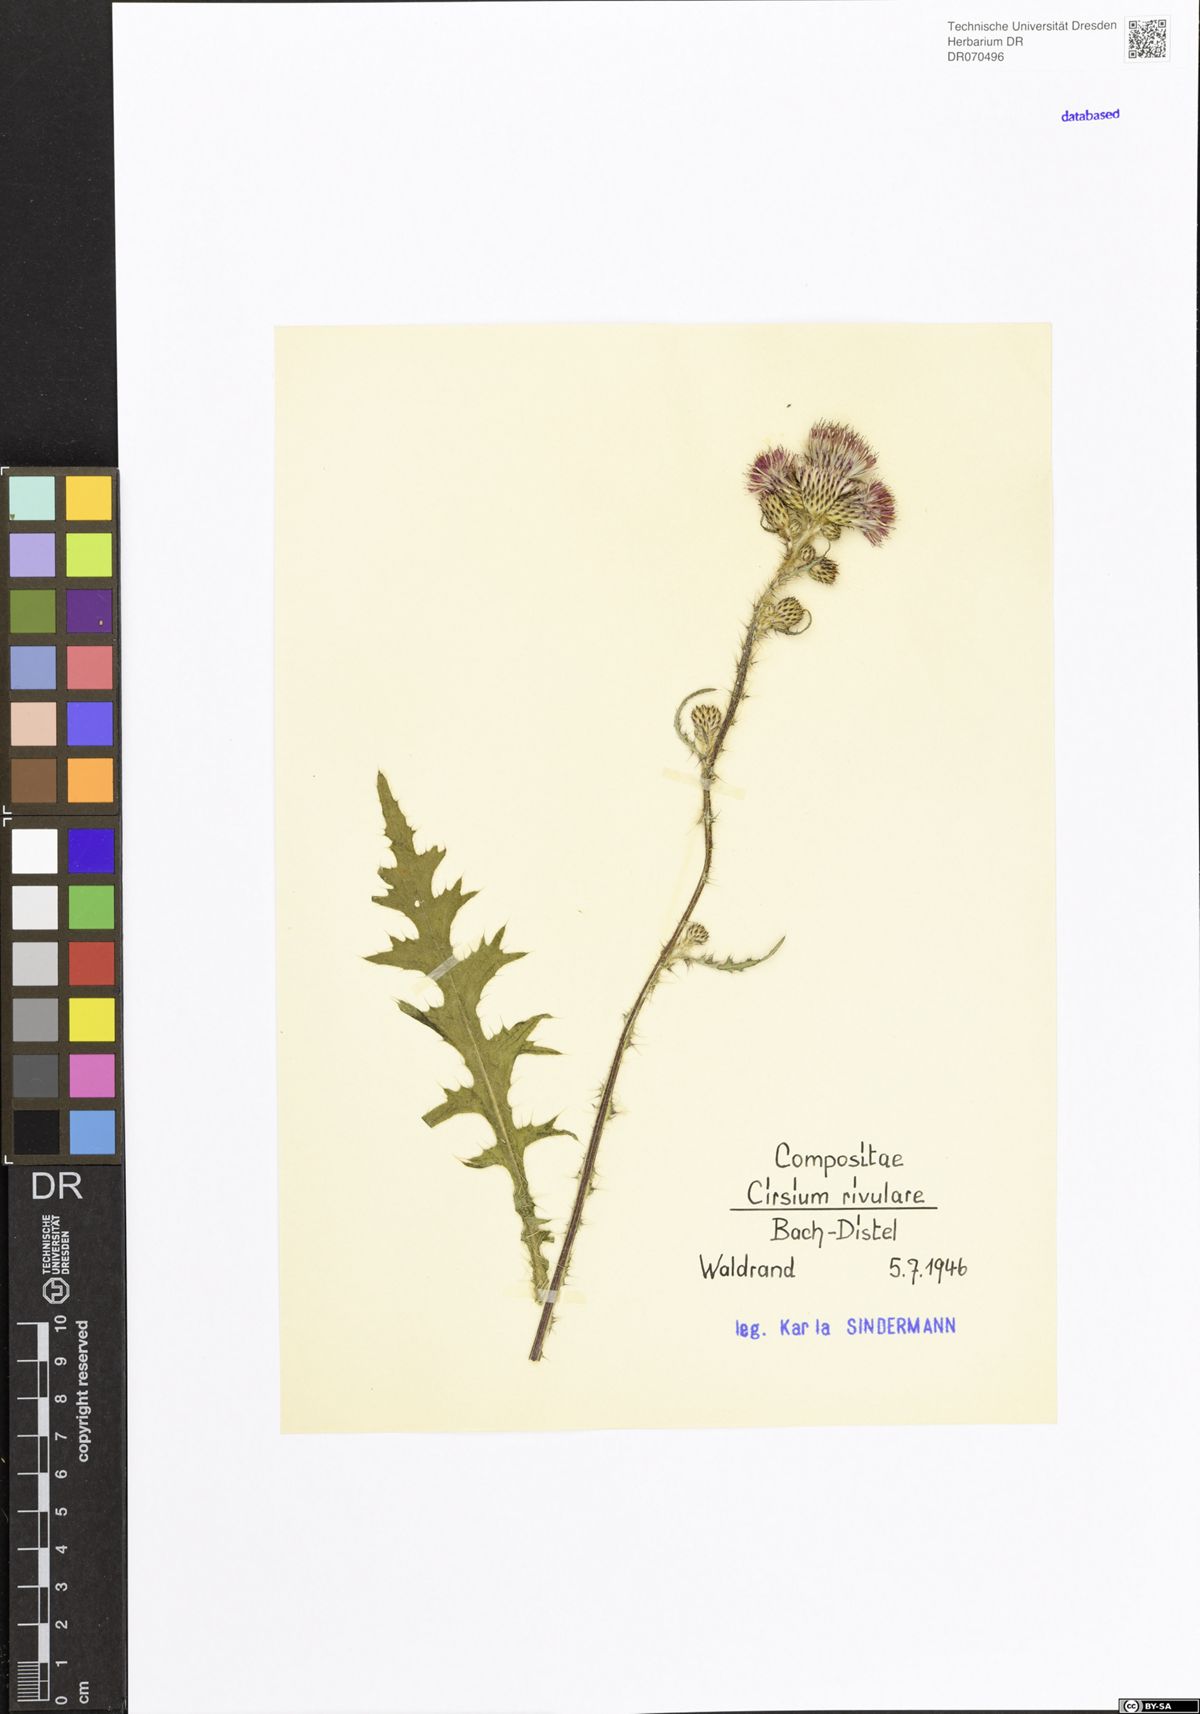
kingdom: Plantae
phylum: Tracheophyta
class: Magnoliopsida
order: Asterales
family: Asteraceae
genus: Cirsium
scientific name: Cirsium rivulare
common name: Brook thistle
